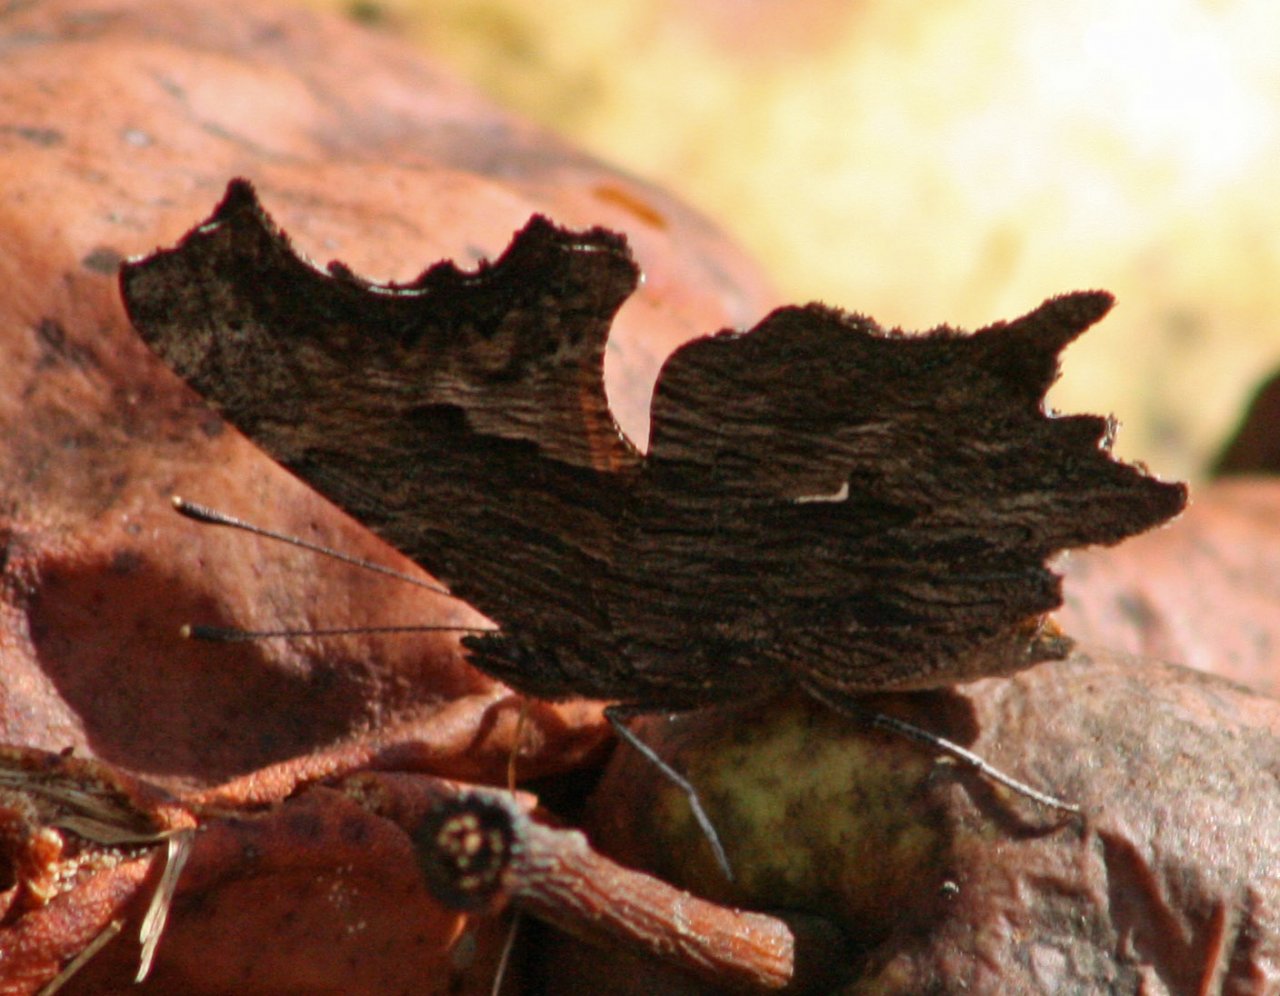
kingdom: Animalia
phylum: Arthropoda
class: Insecta
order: Lepidoptera
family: Nymphalidae
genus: Polygonia
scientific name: Polygonia progne
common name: Gray Comma
